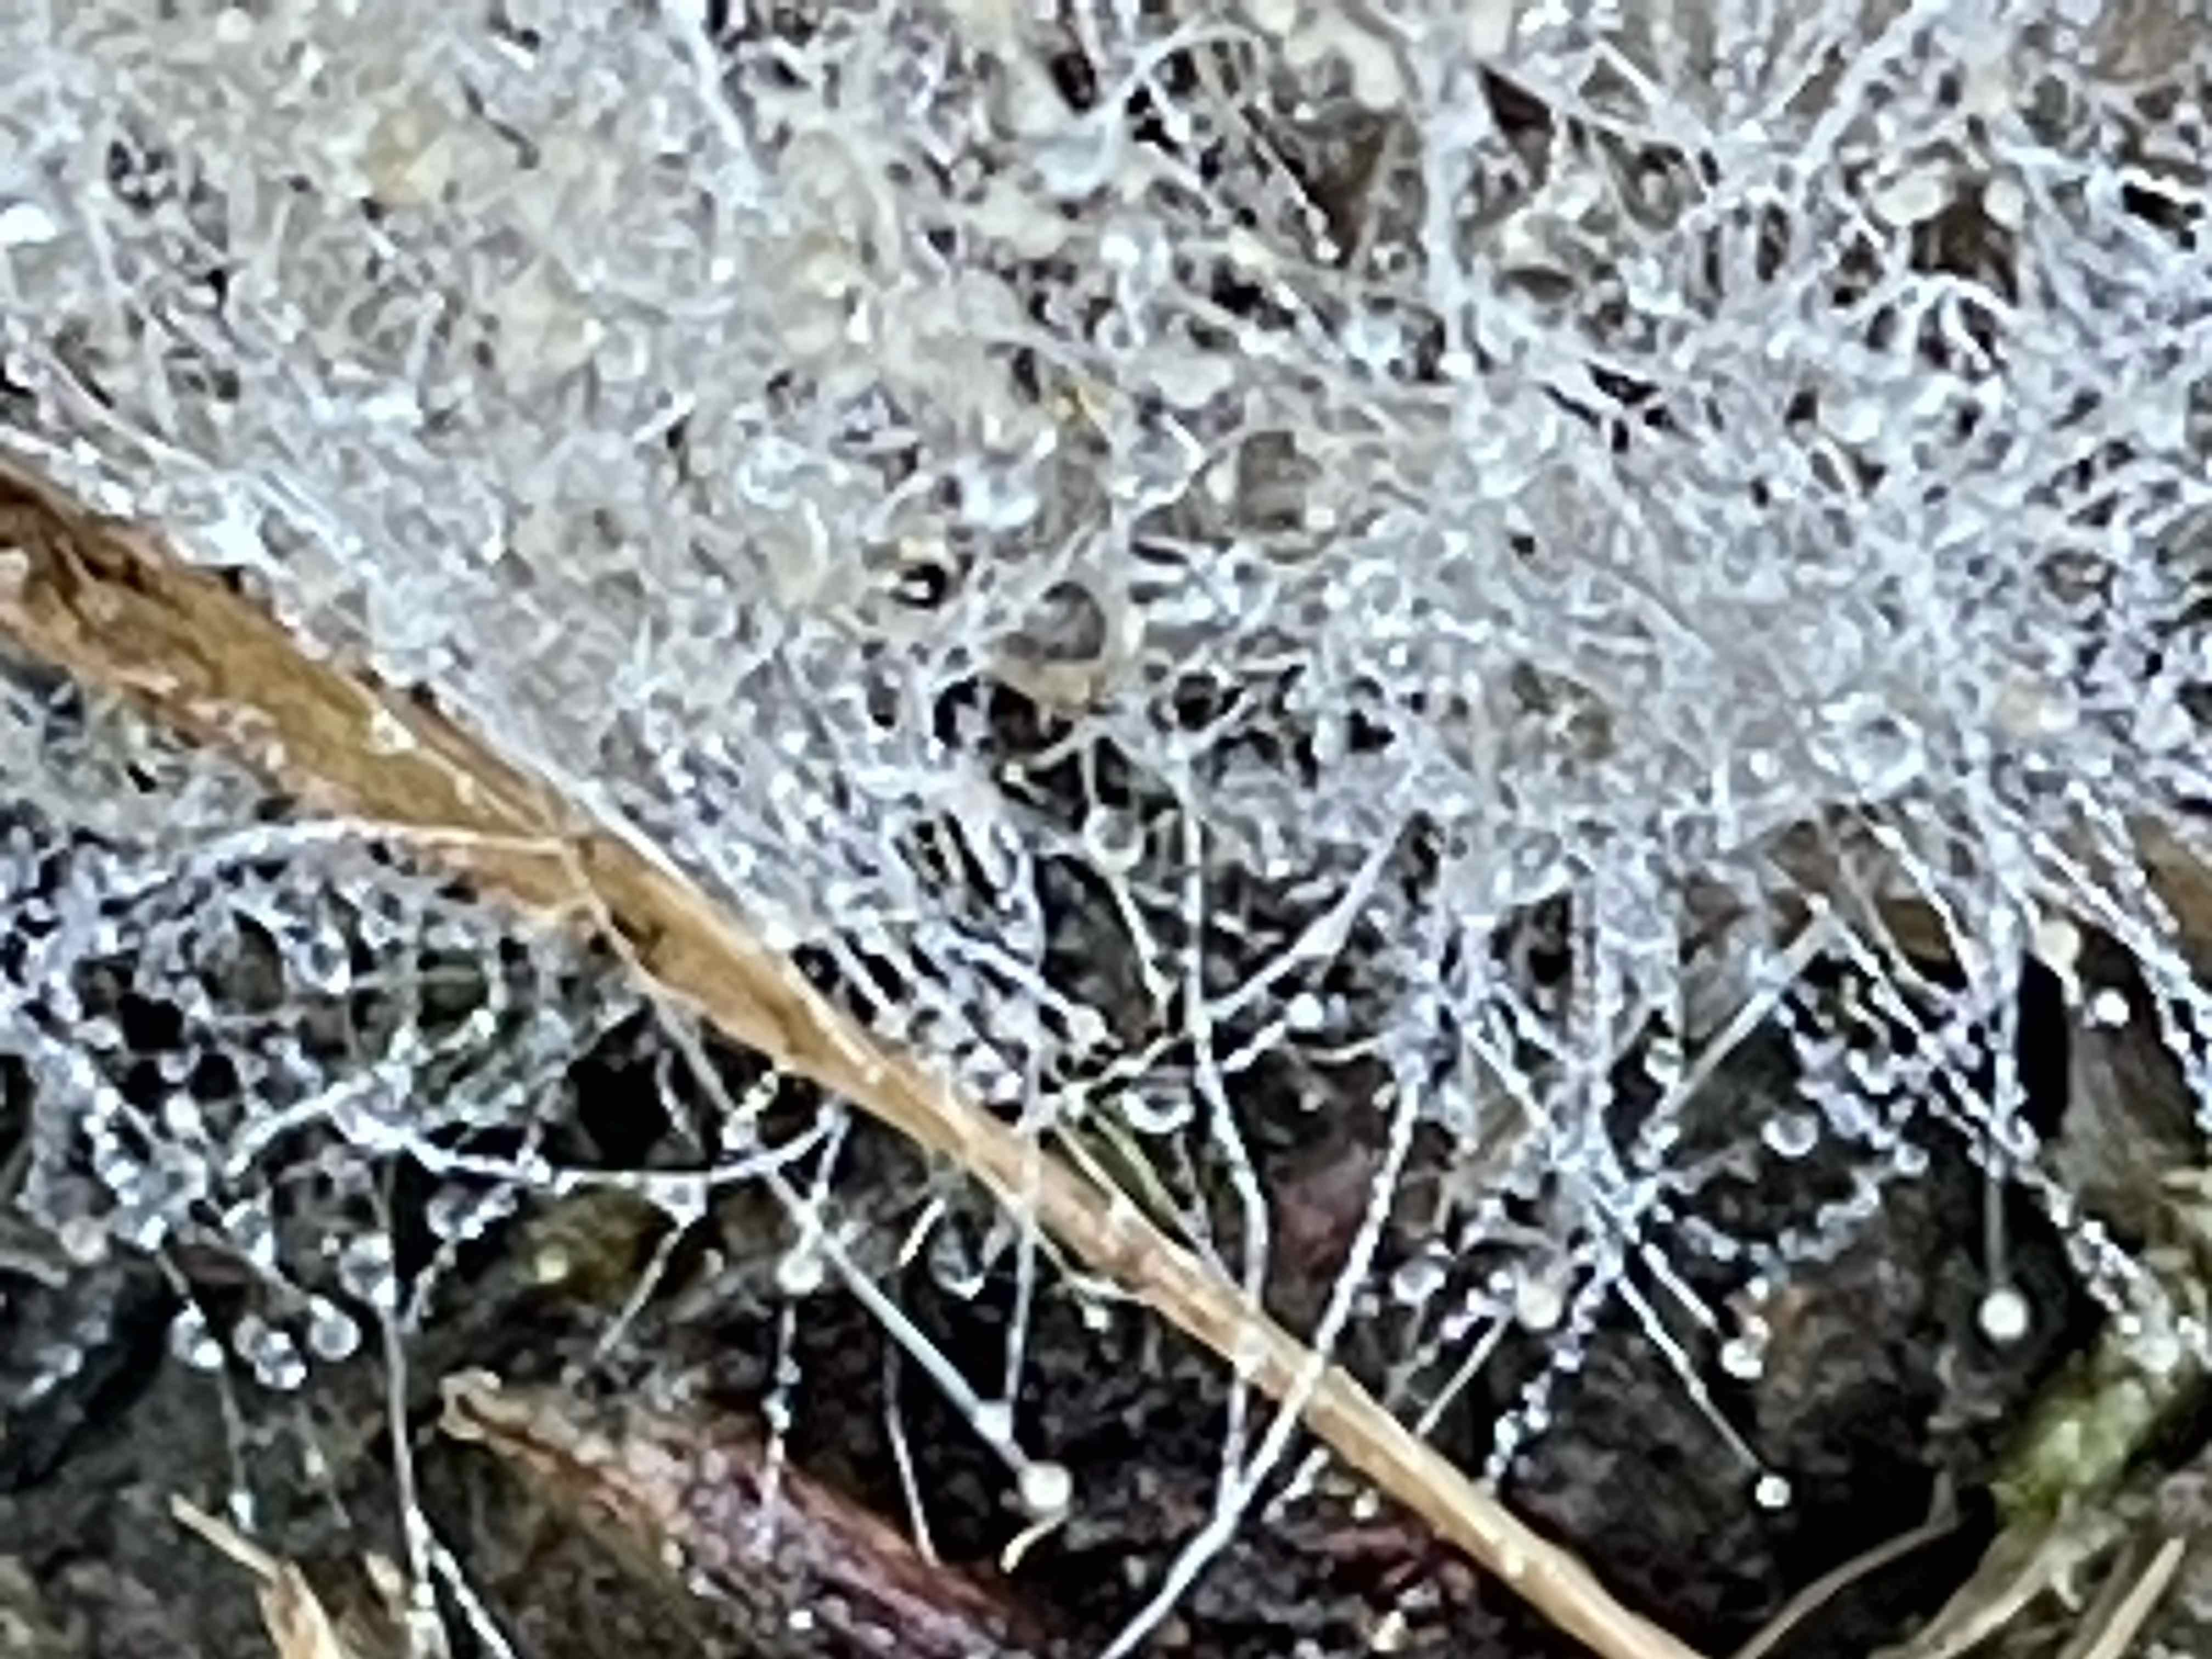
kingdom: Fungi
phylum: Mucoromycota
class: Mucoromycetes
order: Mucorales
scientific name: Mucorales
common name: mugordenen
